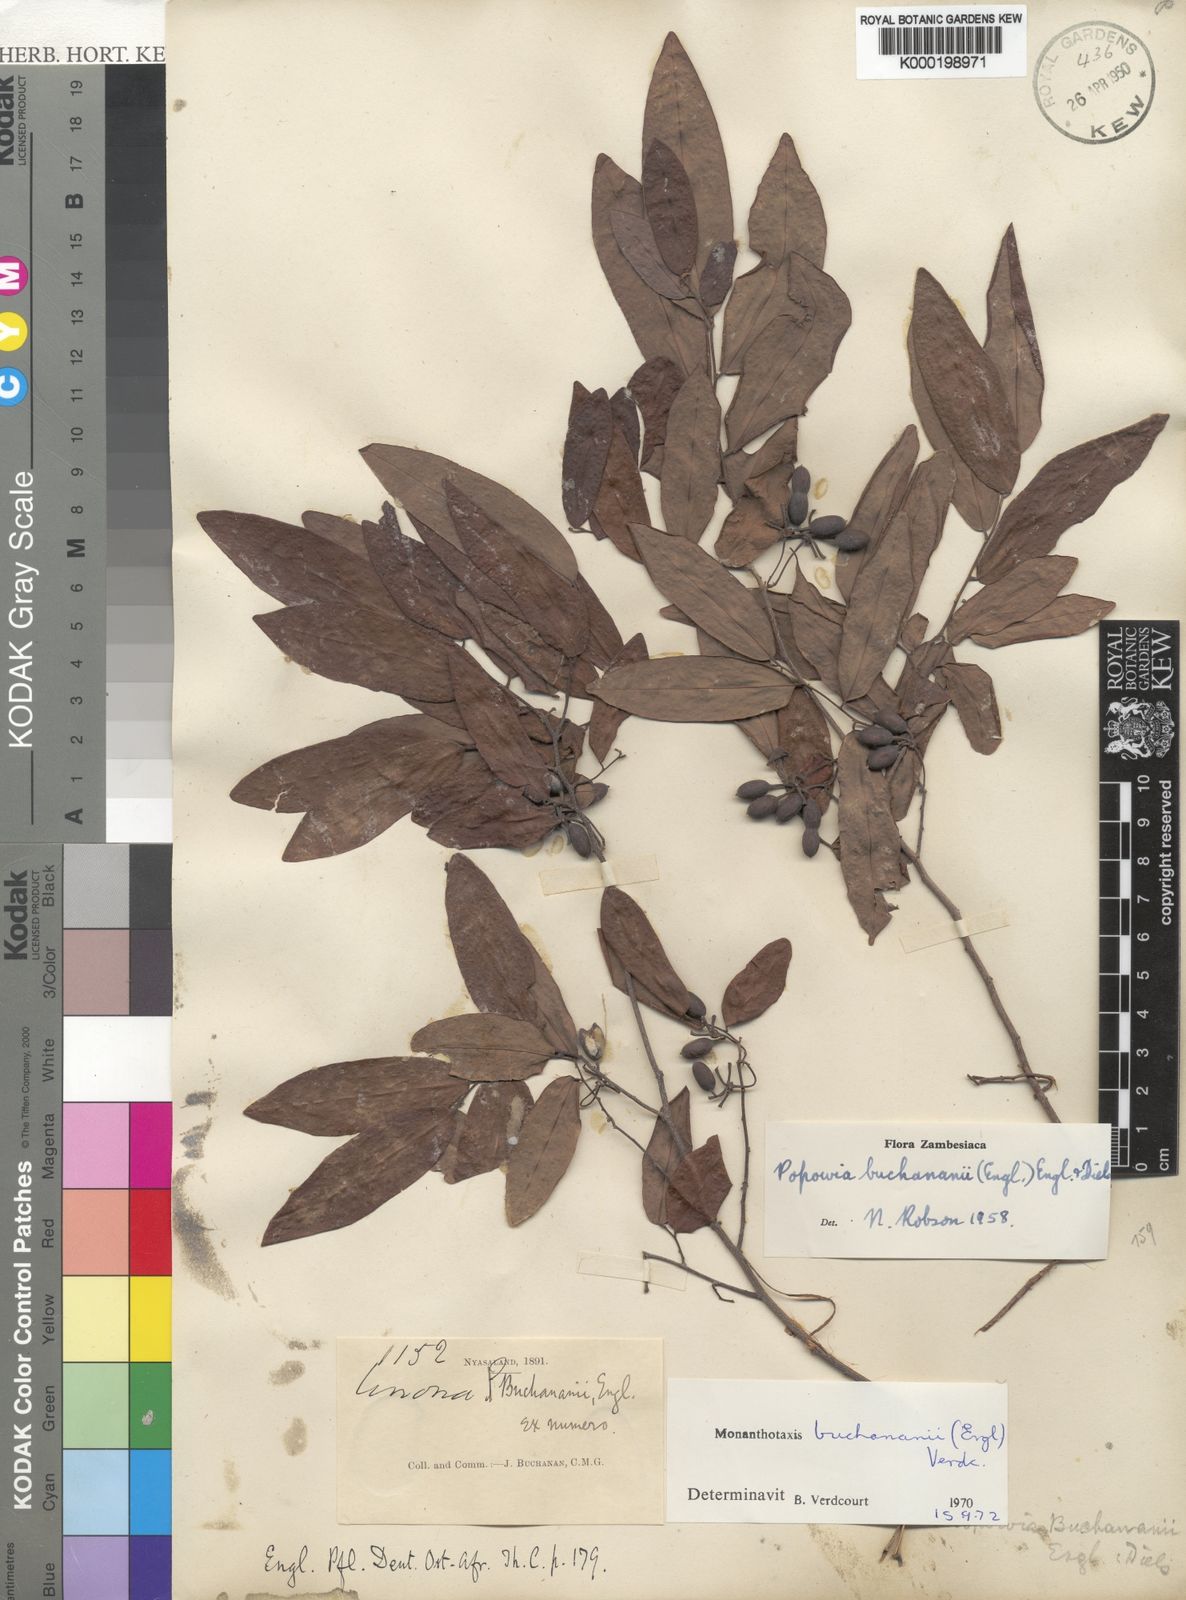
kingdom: Plantae
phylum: Tracheophyta
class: Magnoliopsida
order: Magnoliales
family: Annonaceae
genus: Monanthotaxis
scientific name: Monanthotaxis buchananii
